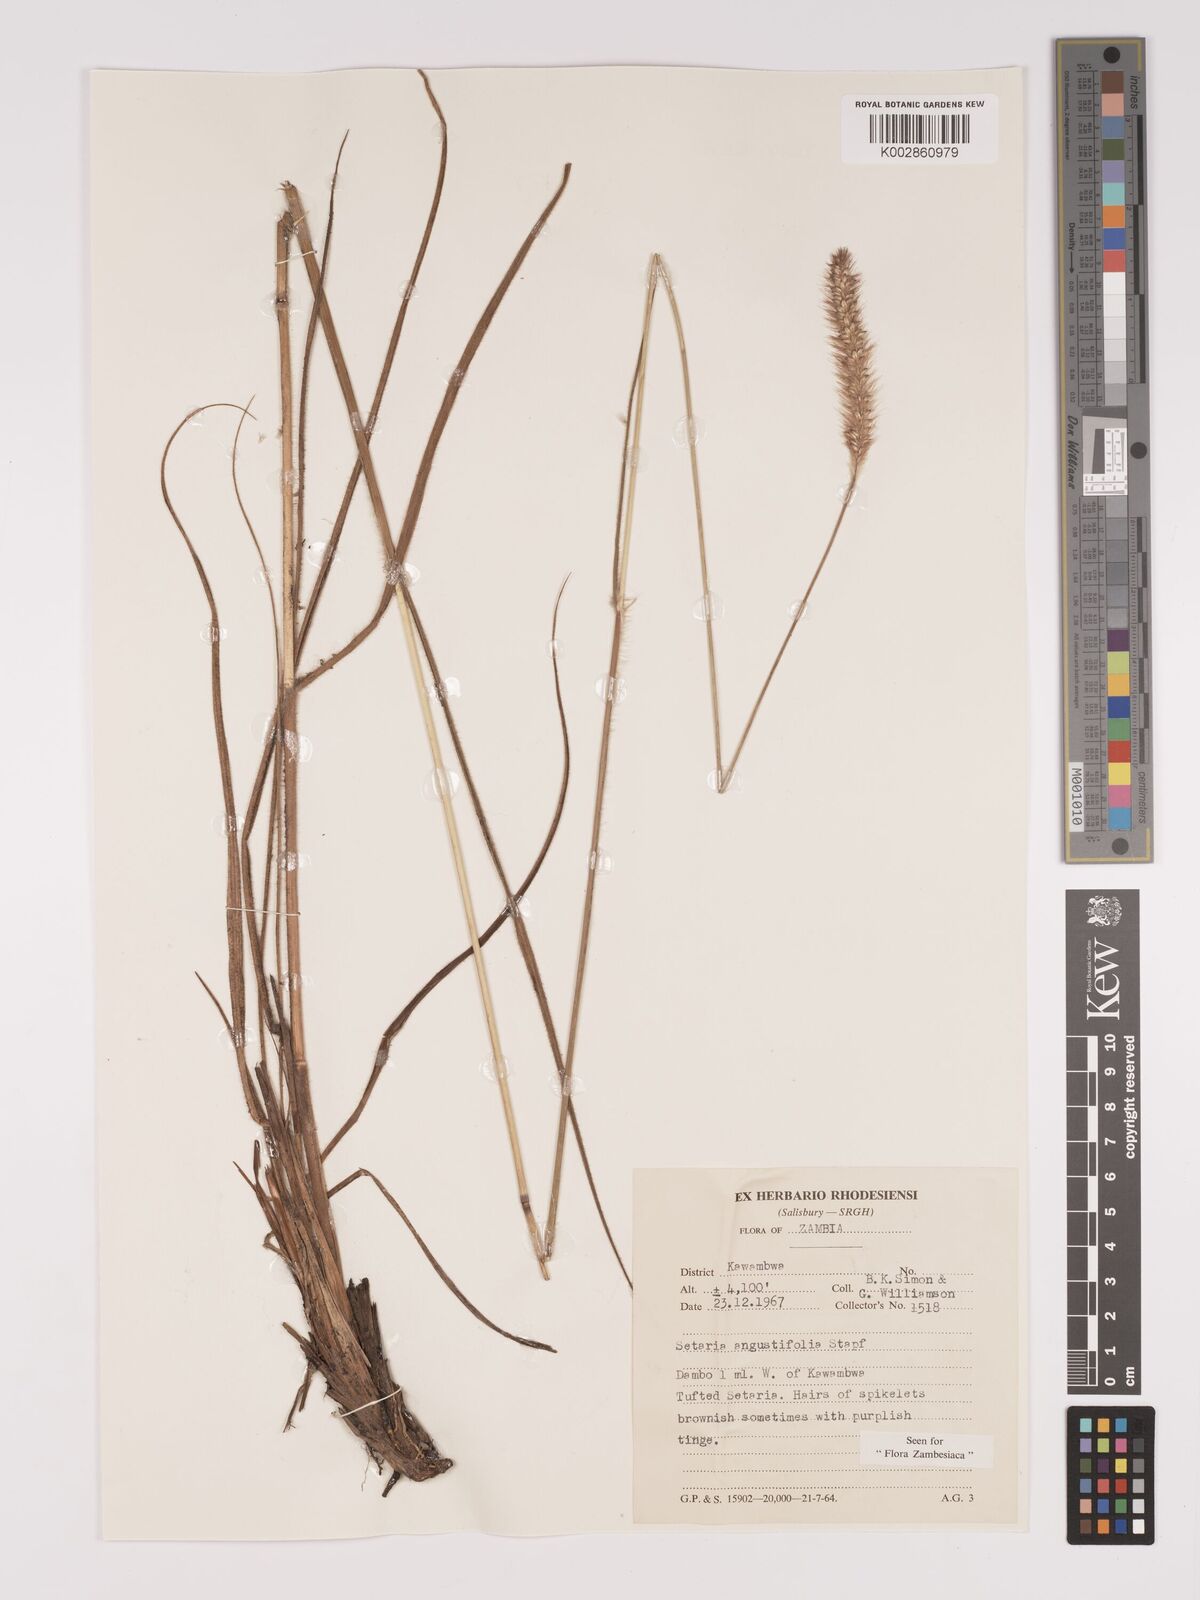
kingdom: Plantae
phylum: Tracheophyta
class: Liliopsida
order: Poales
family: Poaceae
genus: Setaria
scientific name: Setaria
